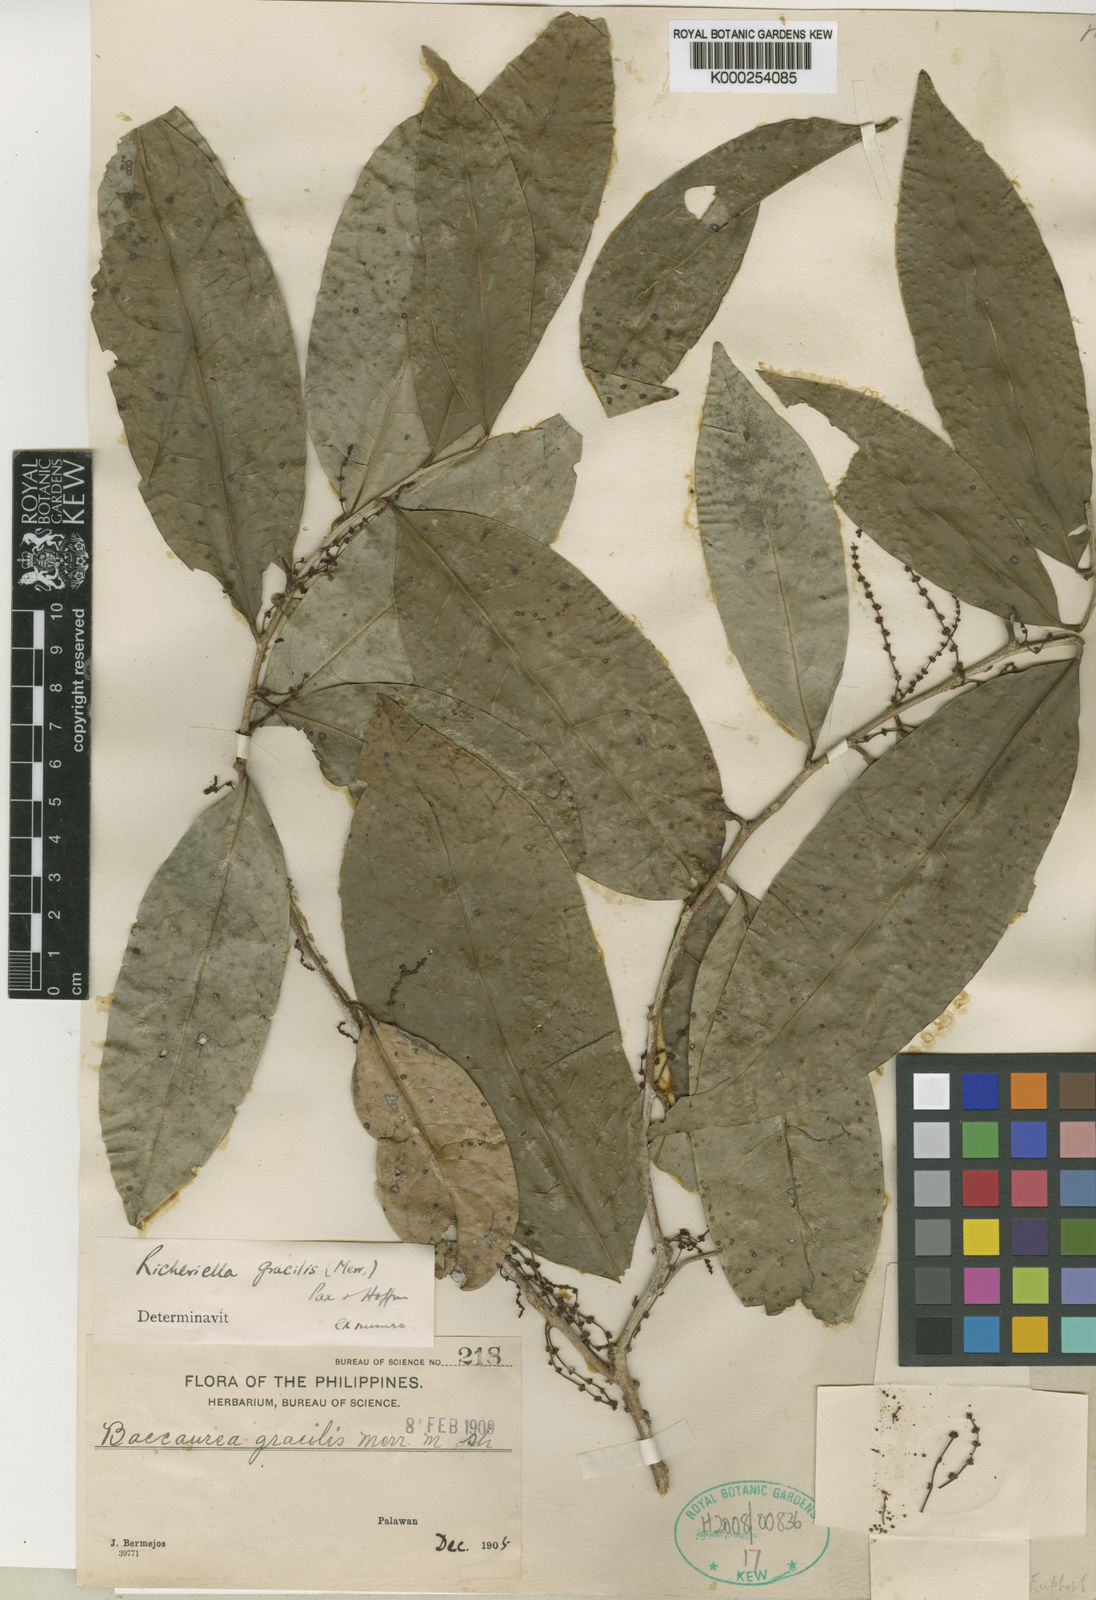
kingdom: Plantae
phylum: Tracheophyta
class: Magnoliopsida
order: Malpighiales
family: Phyllanthaceae
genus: Flueggea
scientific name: Flueggea gracilis
